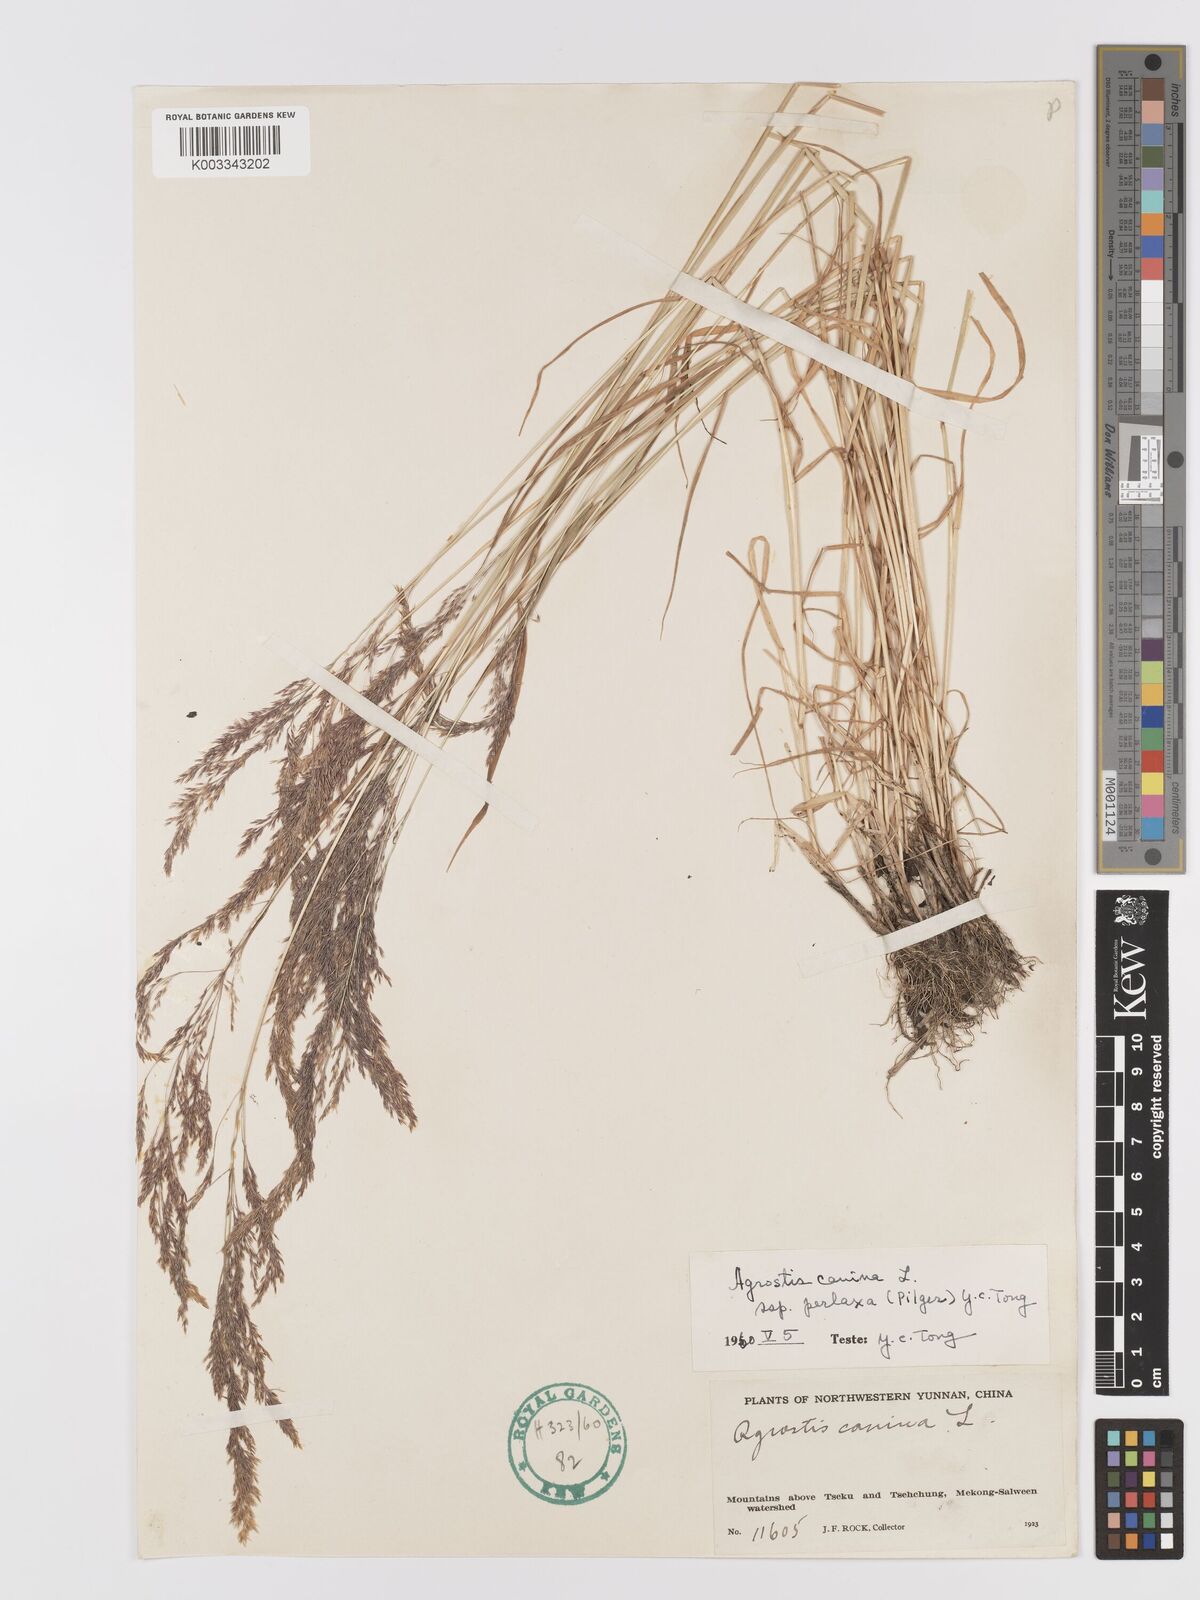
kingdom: Plantae
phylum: Tracheophyta
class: Liliopsida
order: Poales
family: Poaceae
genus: Agrostis
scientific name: Agrostis canina
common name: Velvet bent
